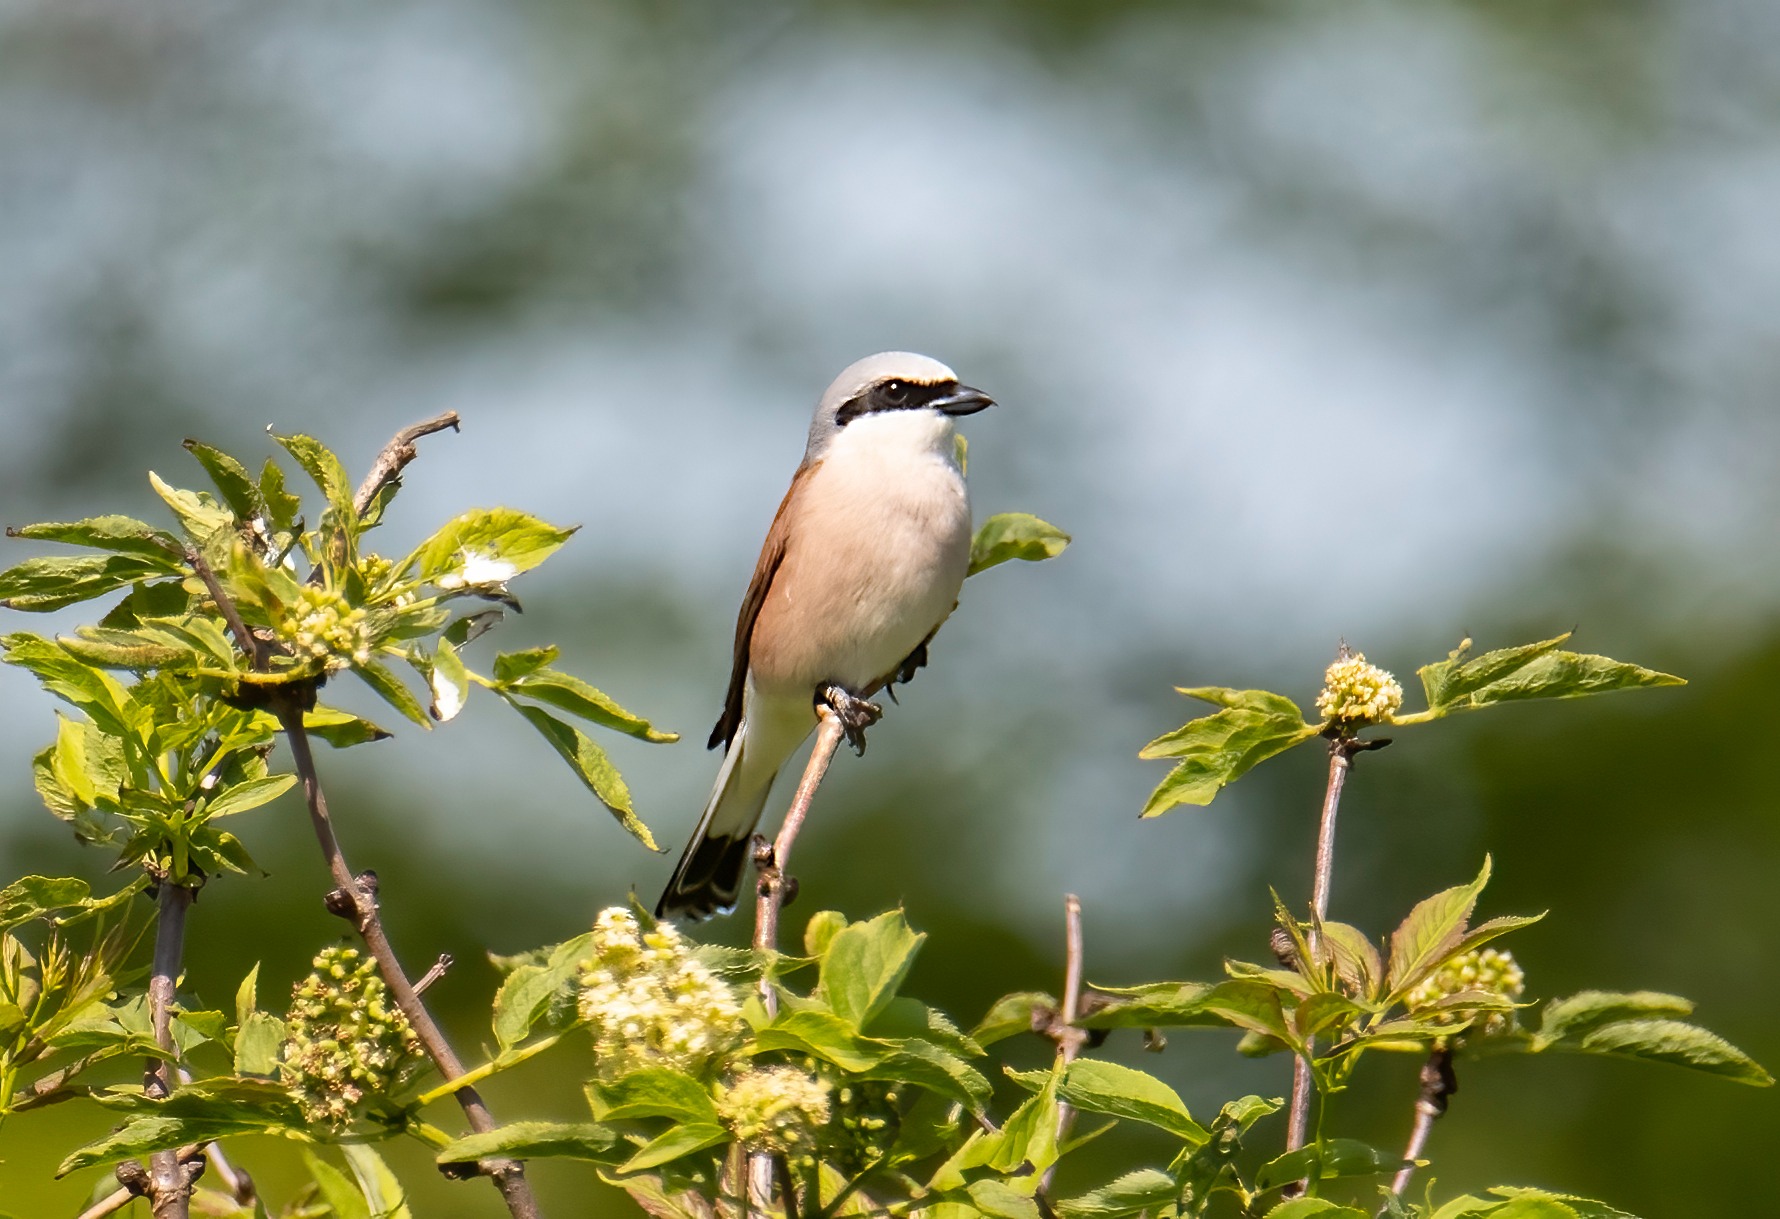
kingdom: Animalia
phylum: Chordata
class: Aves
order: Passeriformes
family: Laniidae
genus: Lanius
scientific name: Lanius collurio
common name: Rødrygget tornskade
